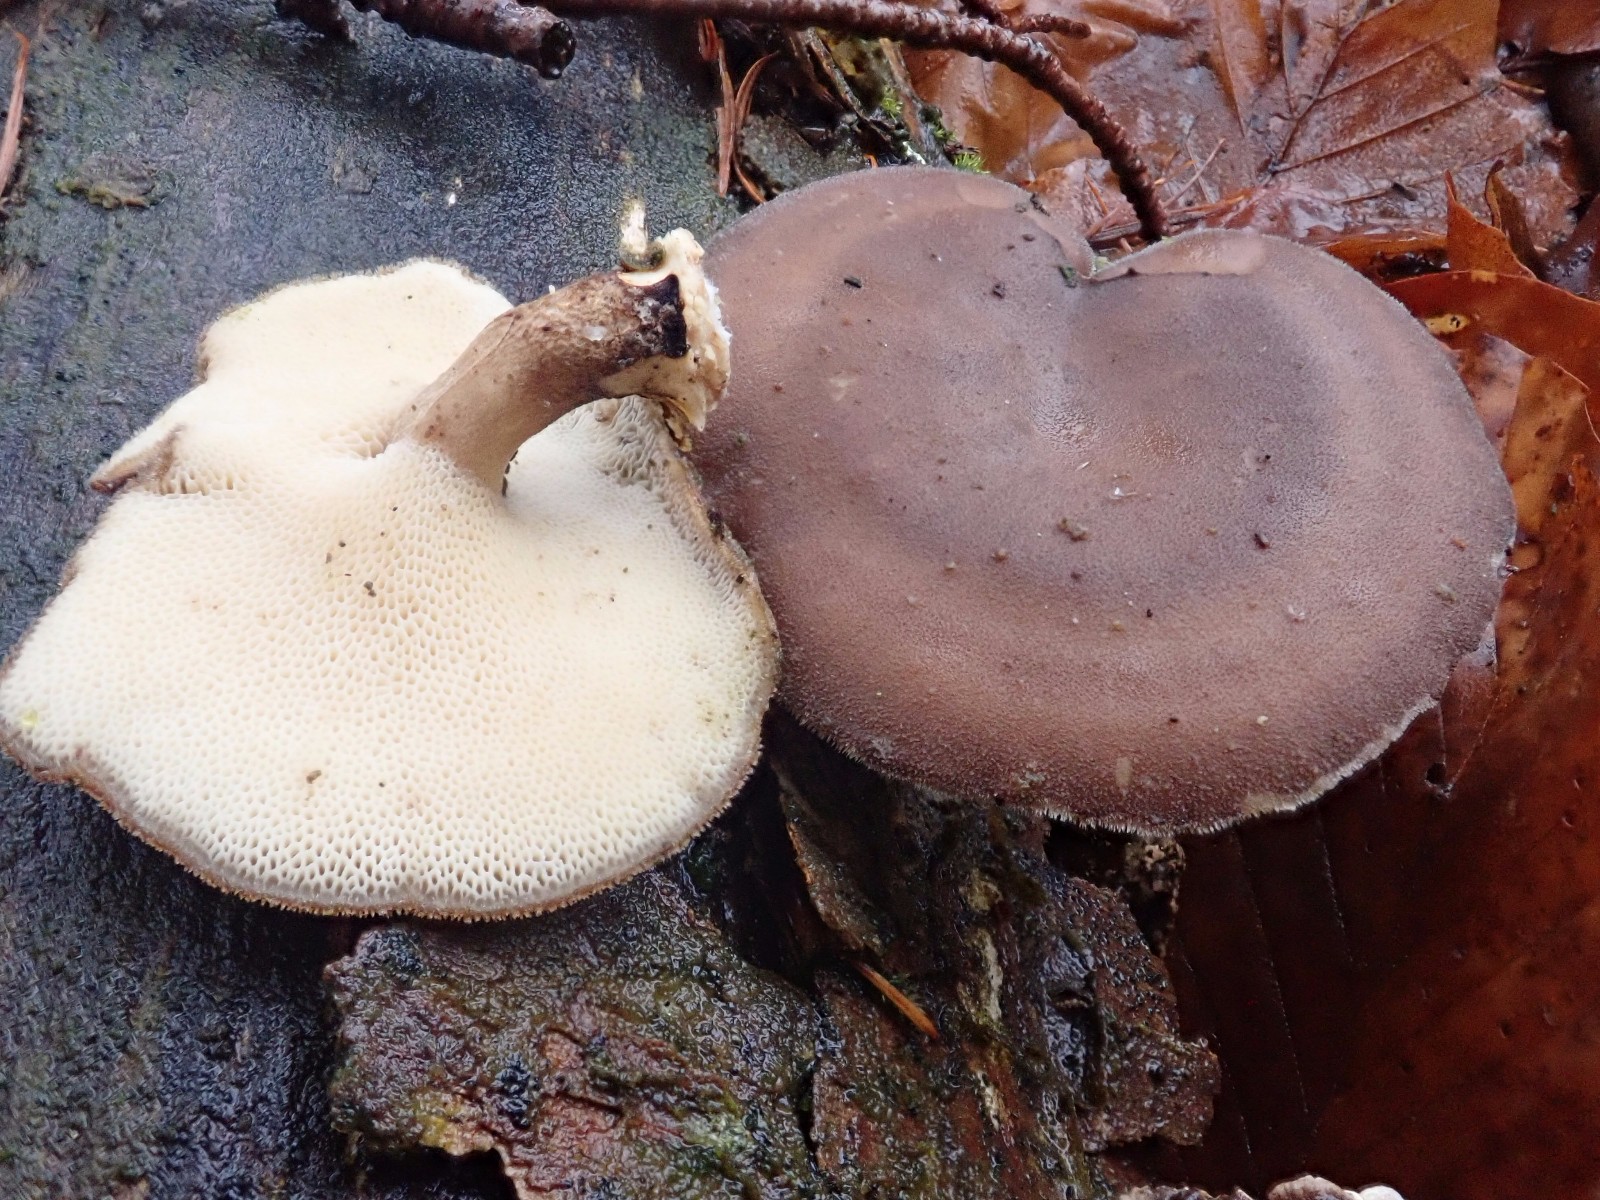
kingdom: Fungi
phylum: Basidiomycota
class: Agaricomycetes
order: Polyporales
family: Polyporaceae
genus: Lentinus
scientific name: Lentinus brumalis
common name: vinter-stilkporesvamp
